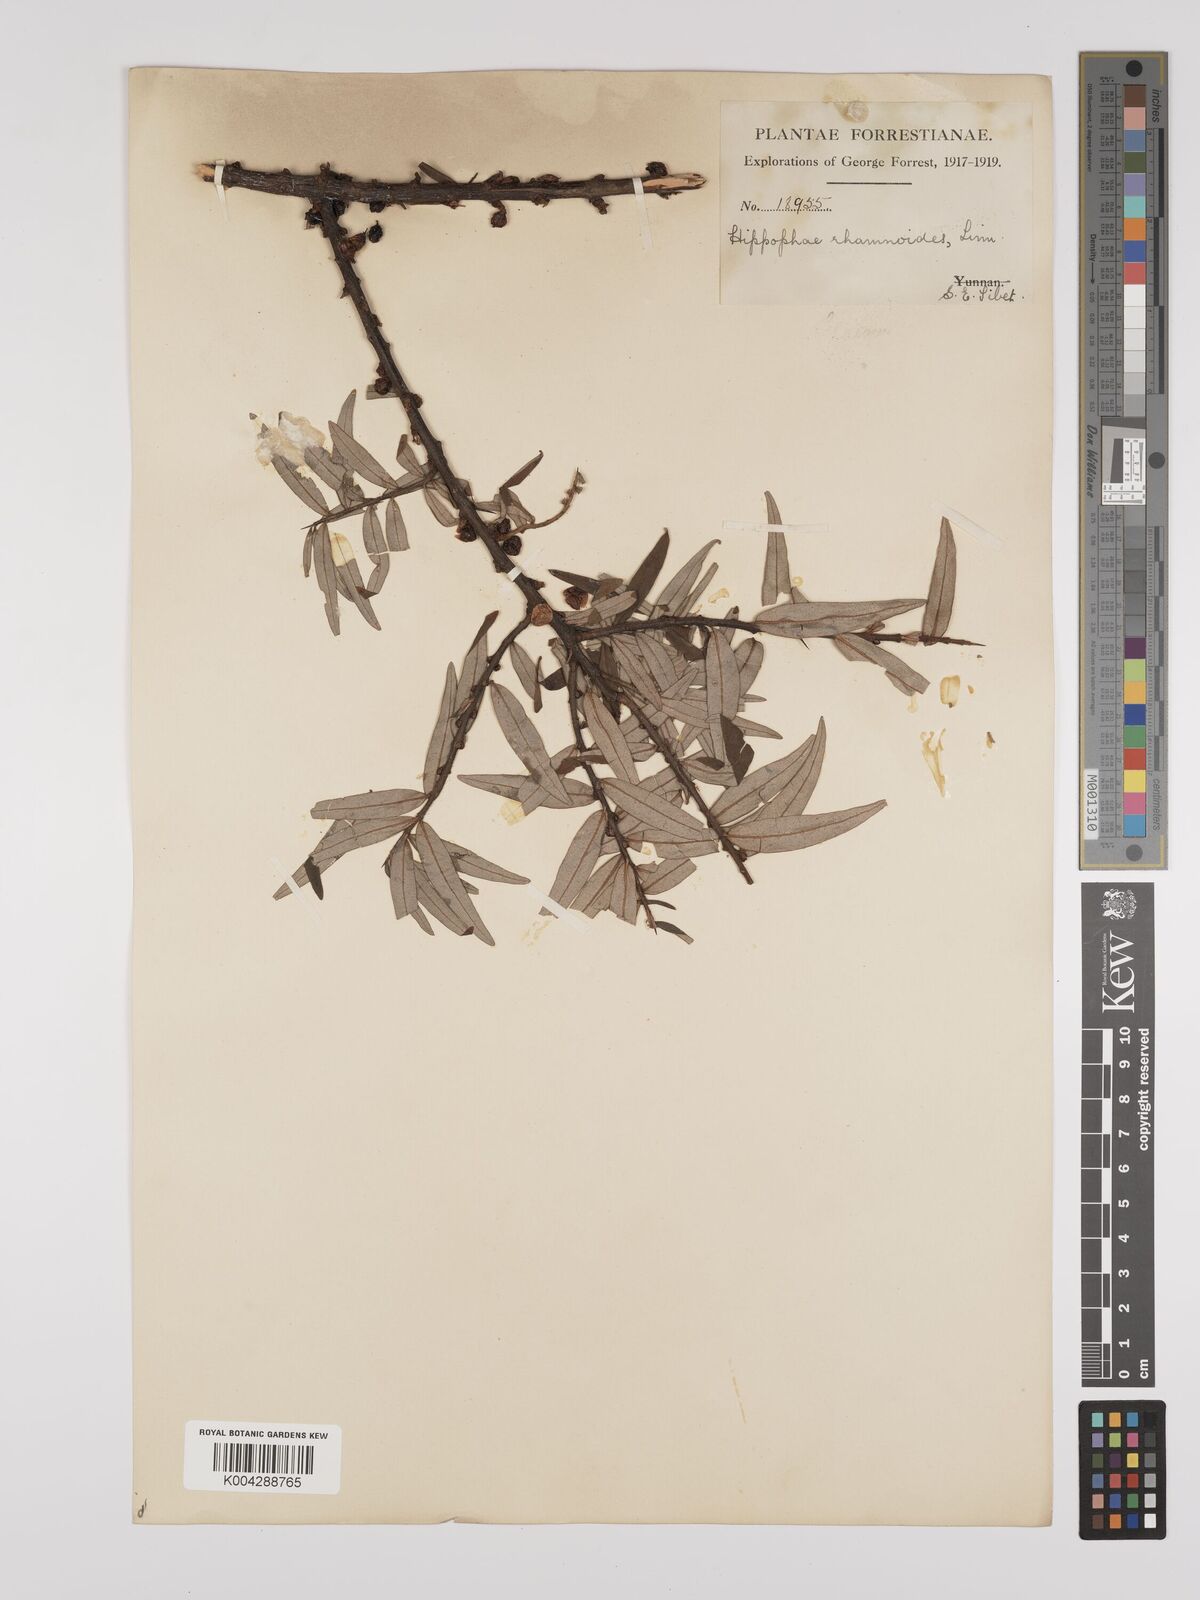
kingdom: Plantae
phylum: Tracheophyta
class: Magnoliopsida
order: Rosales
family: Elaeagnaceae
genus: Hippophae
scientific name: Hippophae rhamnoides
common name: Sea-buckthorn
